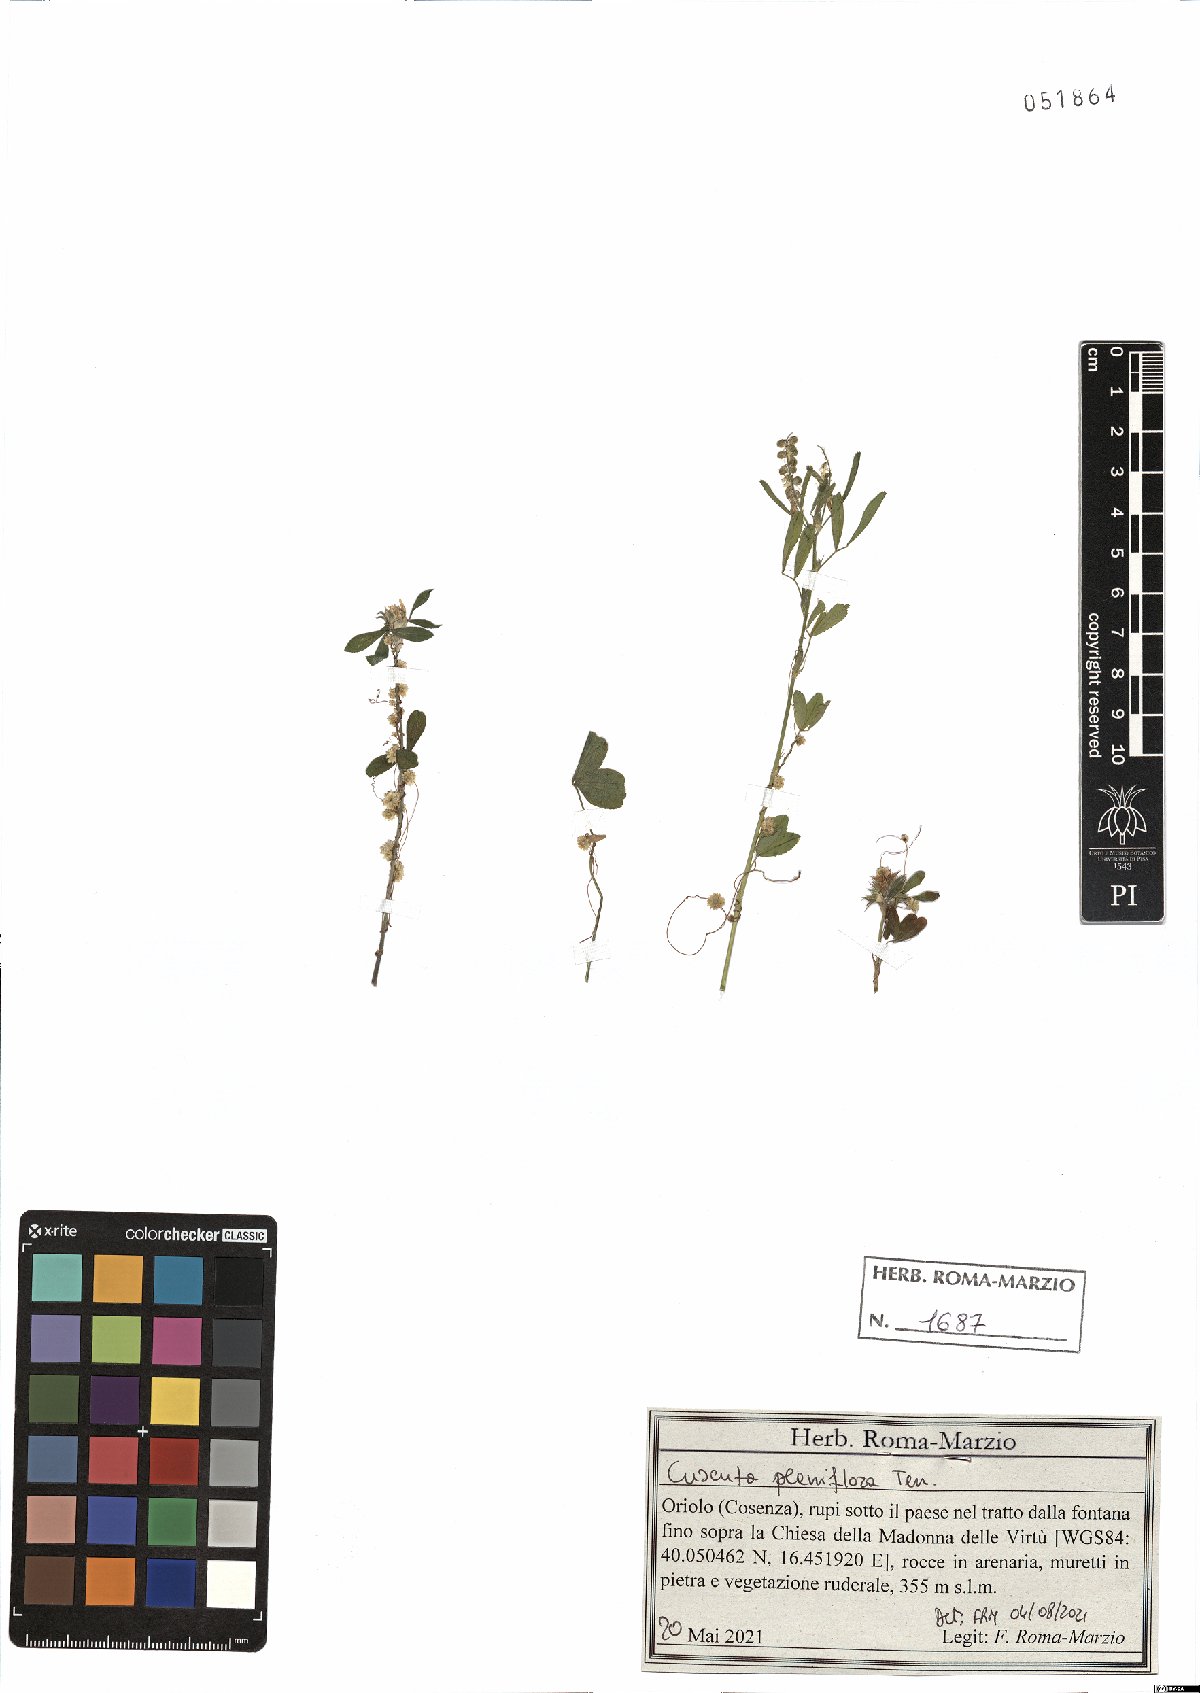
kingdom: Plantae
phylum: Tracheophyta
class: Magnoliopsida
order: Solanales
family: Convolvulaceae
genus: Cuscuta
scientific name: Cuscuta planiflora
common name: Small-seed alfalfa dodder
